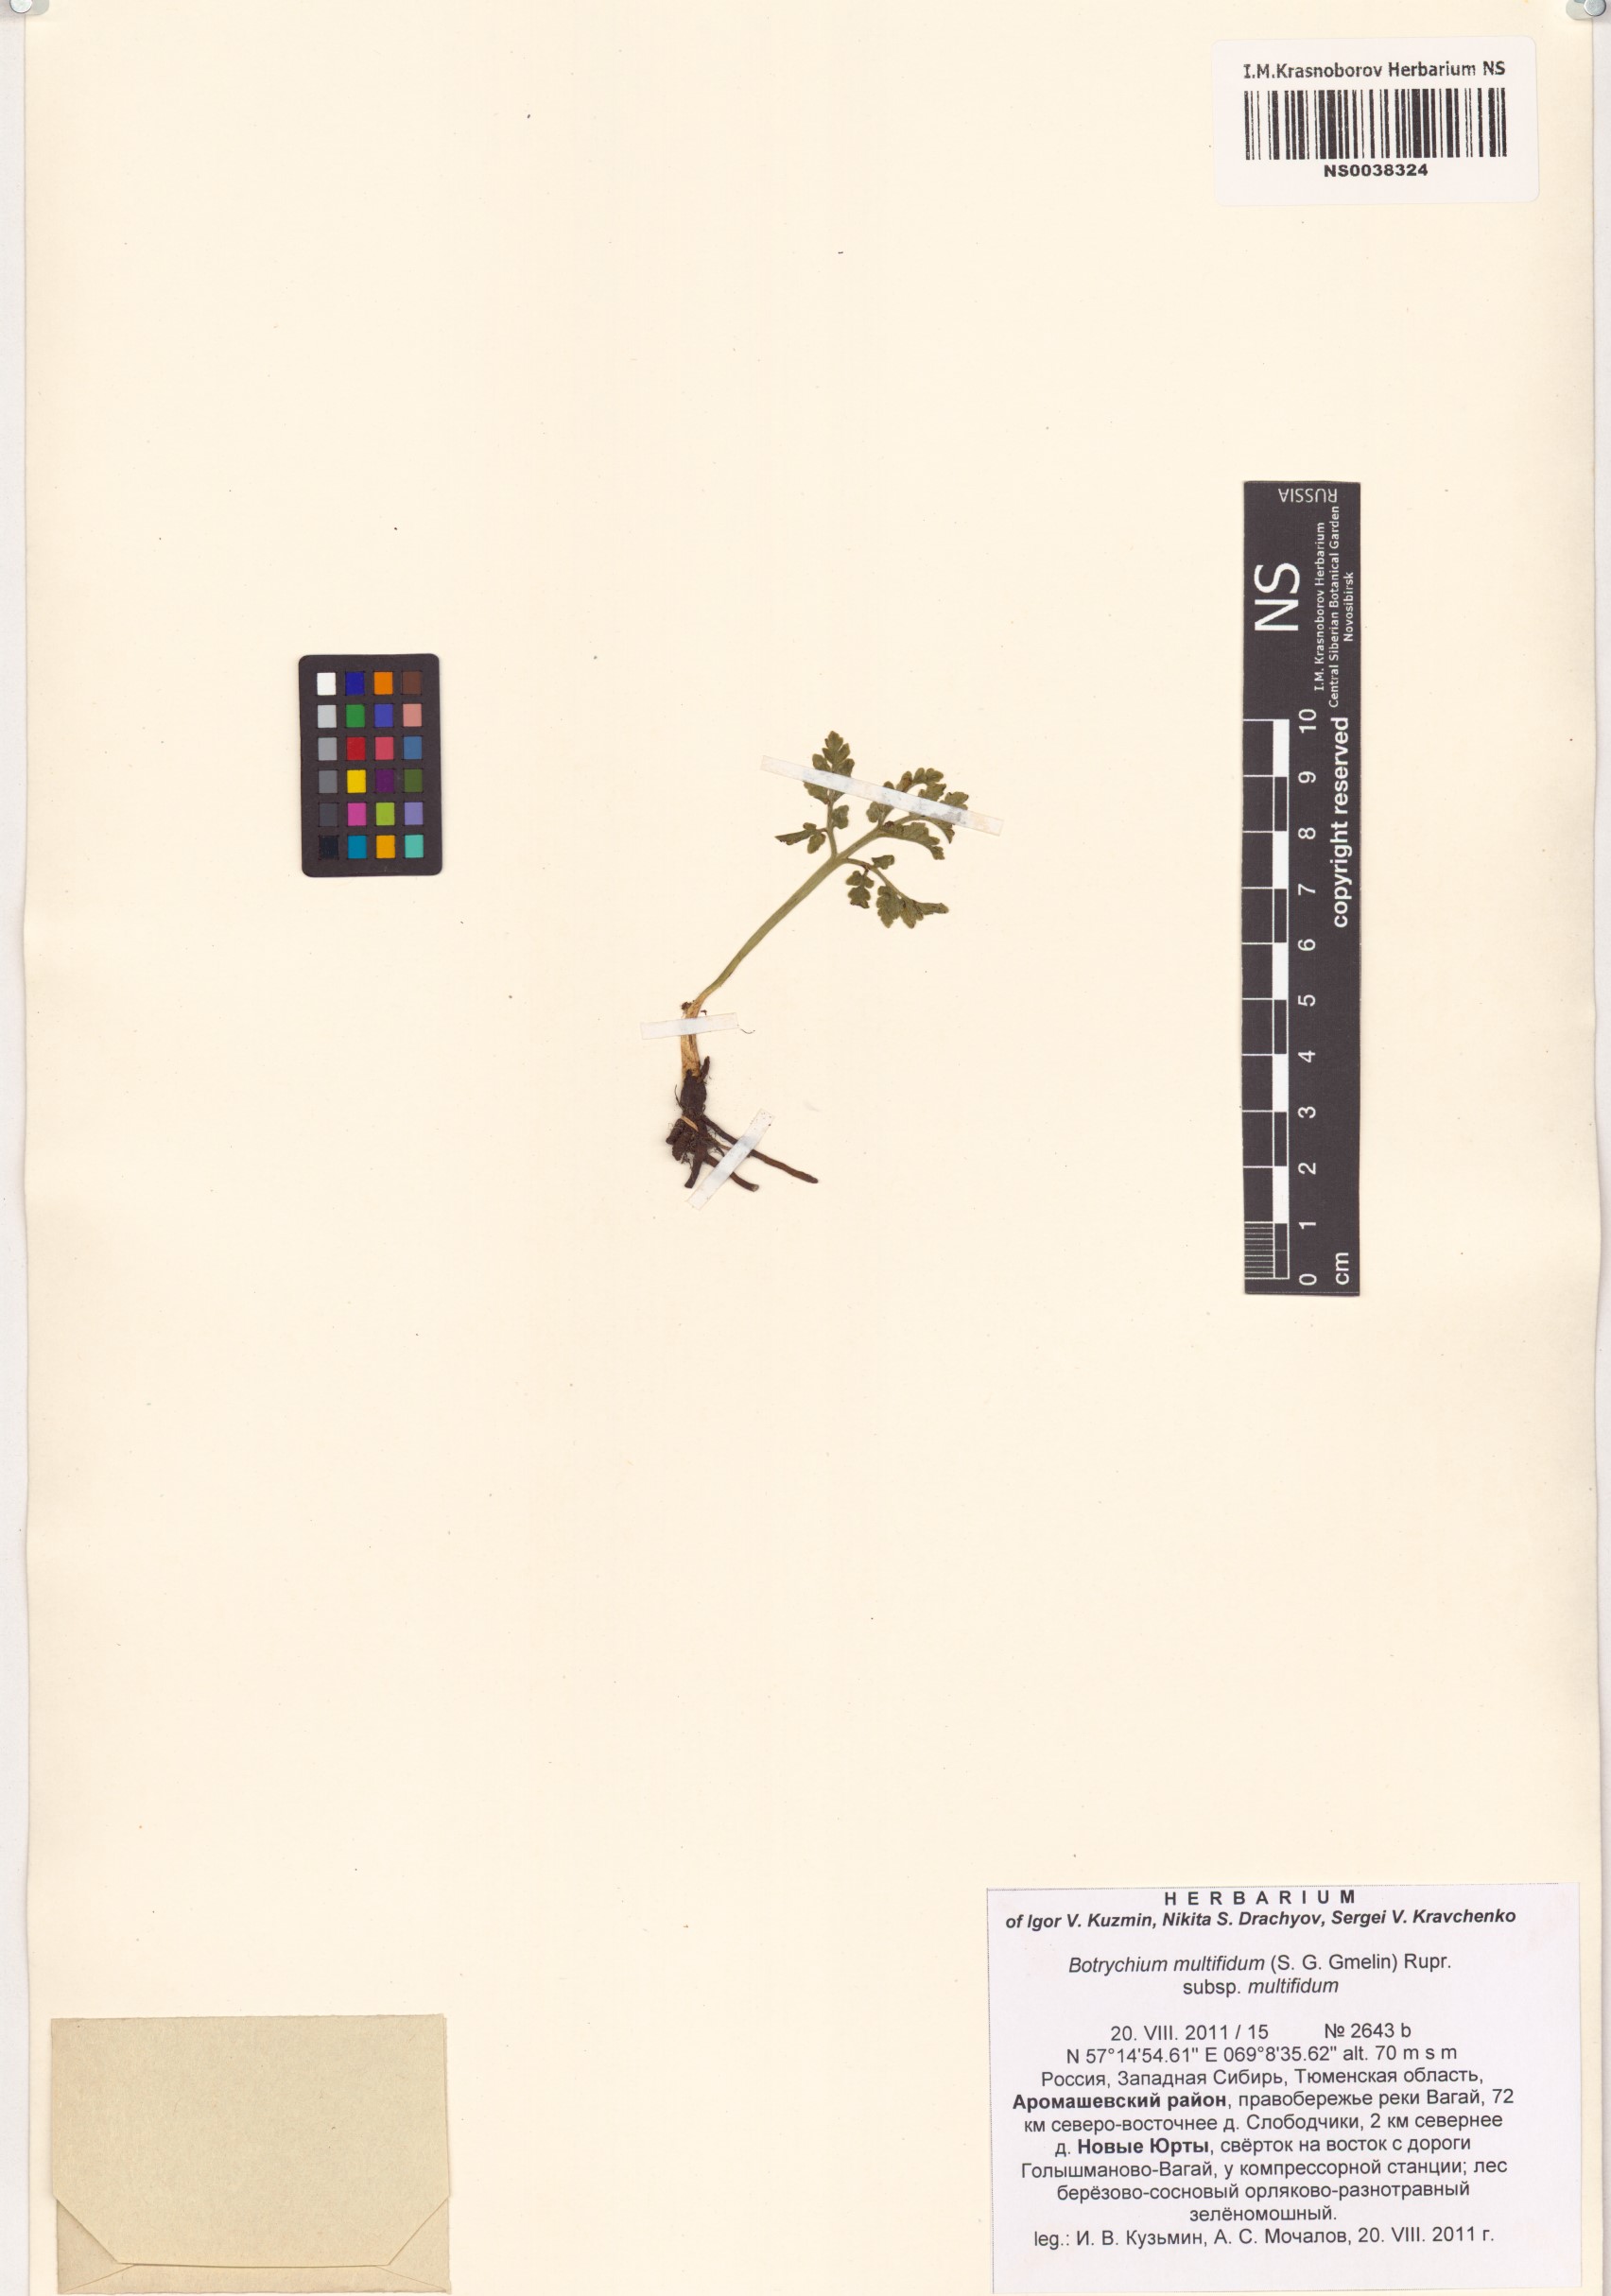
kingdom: Plantae
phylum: Tracheophyta
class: Polypodiopsida
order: Ophioglossales
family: Ophioglossaceae
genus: Sceptridium
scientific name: Sceptridium multifidum
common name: Leathery grape fern
